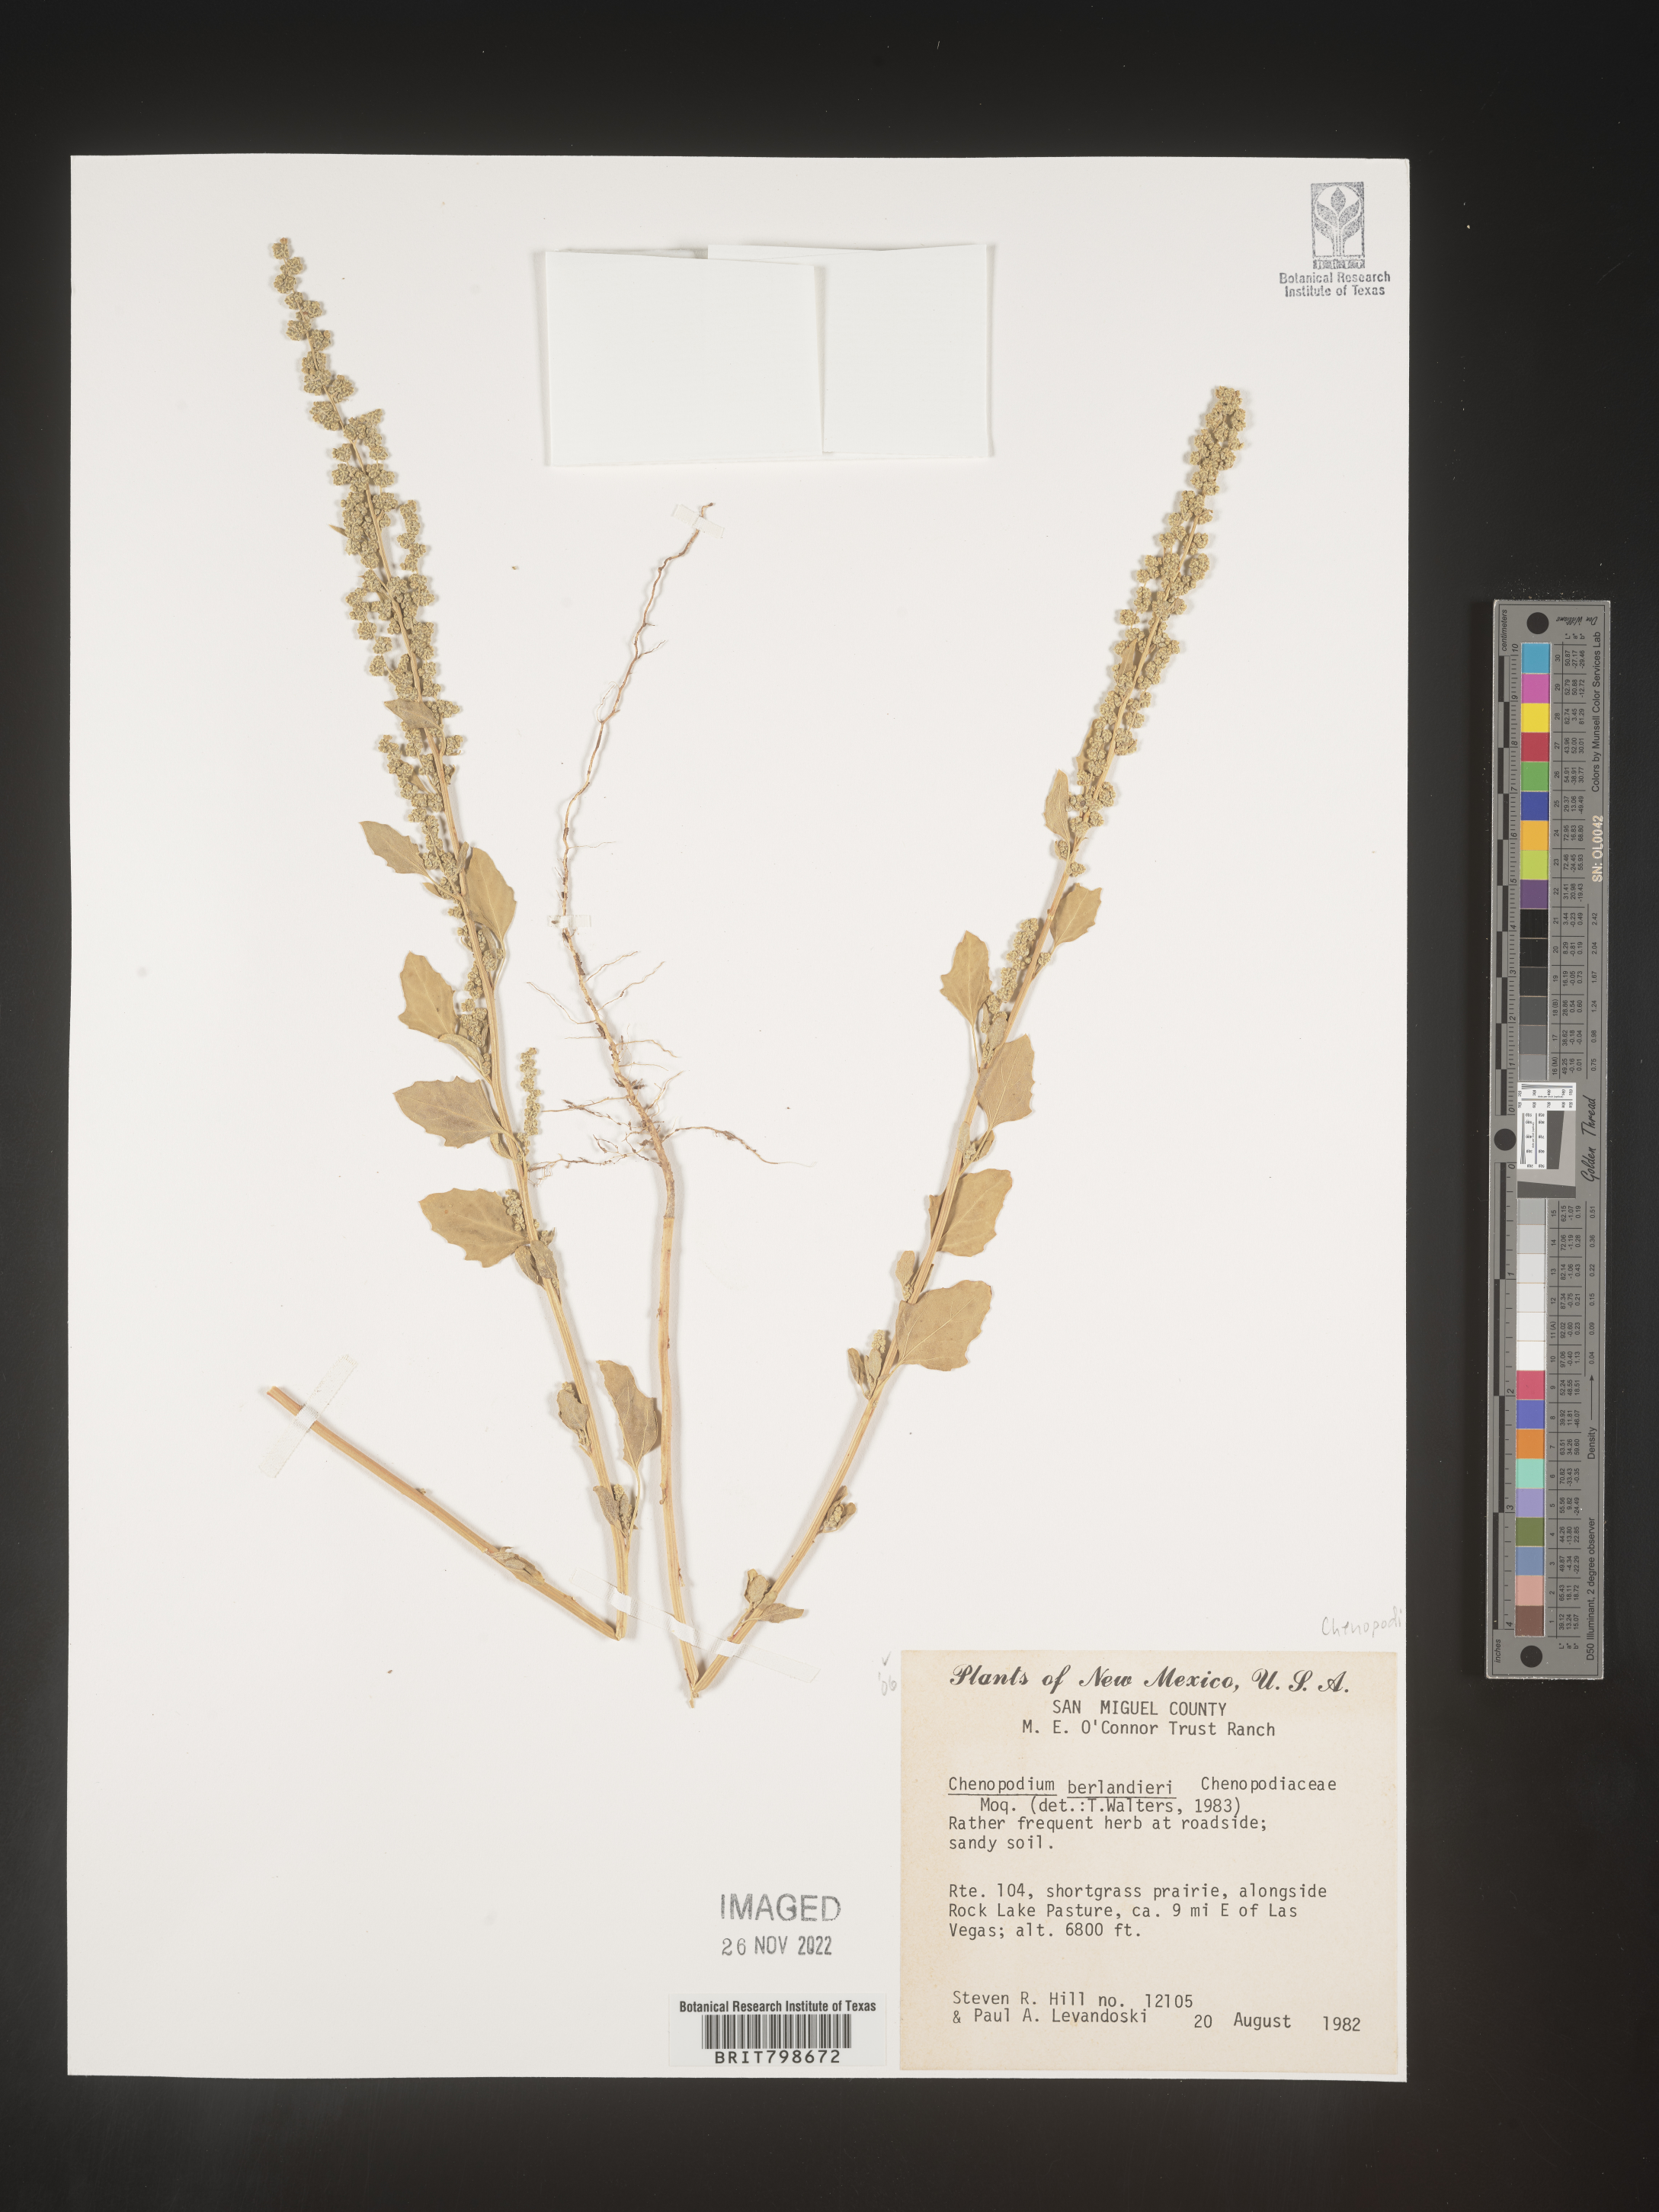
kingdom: Plantae
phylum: Tracheophyta
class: Magnoliopsida
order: Caryophyllales
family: Amaranthaceae
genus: Chenopodium
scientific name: Chenopodium berlandieri
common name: Pit-seed goosefoot
